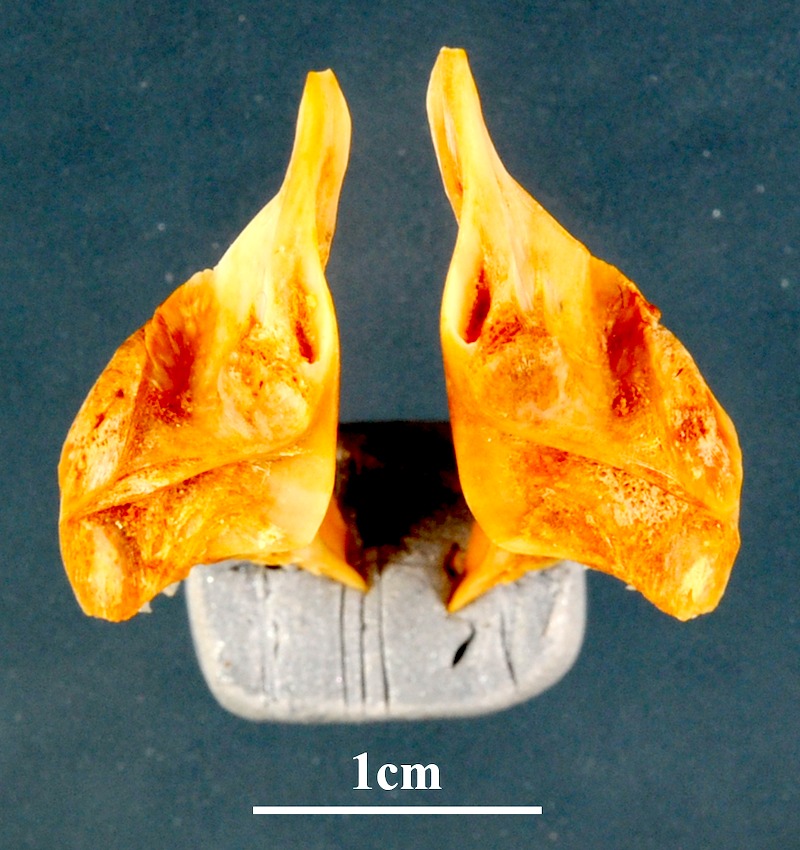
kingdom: Animalia
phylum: Chordata
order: Perciformes
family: Sciaenidae
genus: Umbrina
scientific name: Umbrina ronchus
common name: Slender baardman
